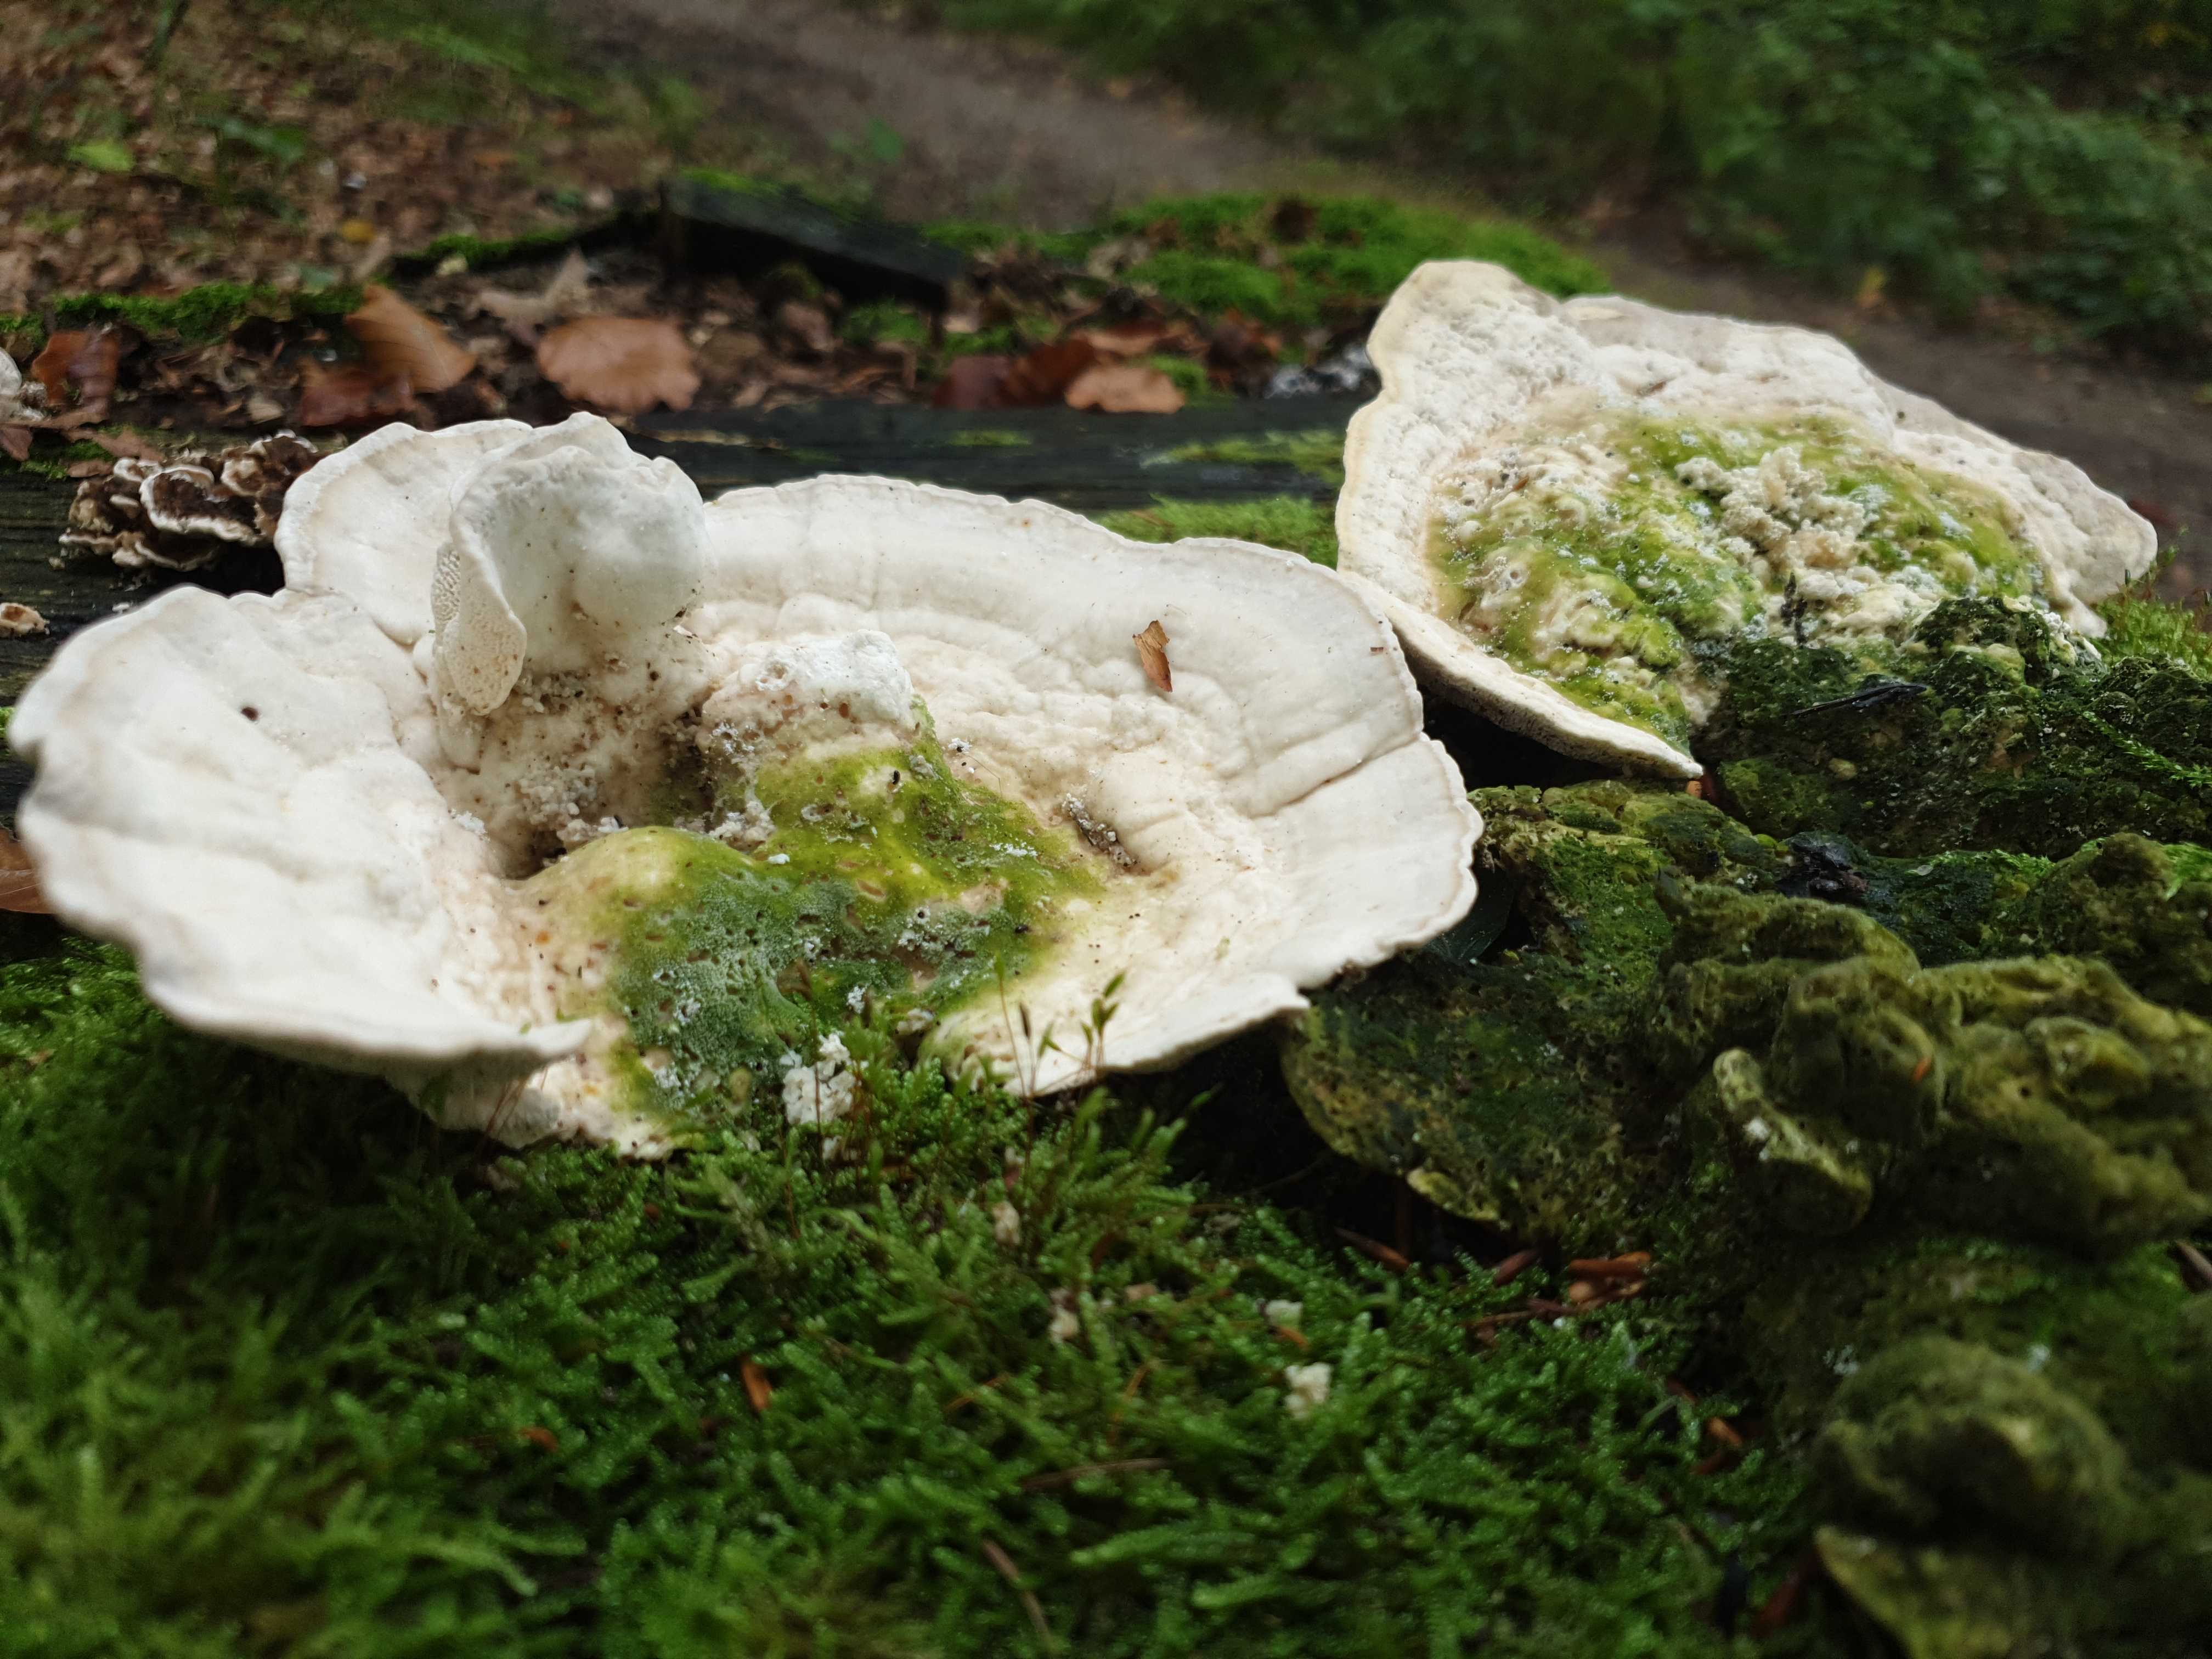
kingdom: Fungi
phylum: Basidiomycota
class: Agaricomycetes
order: Polyporales
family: Polyporaceae
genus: Trametes
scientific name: Trametes gibbosa
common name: puklet læderporesvamp
